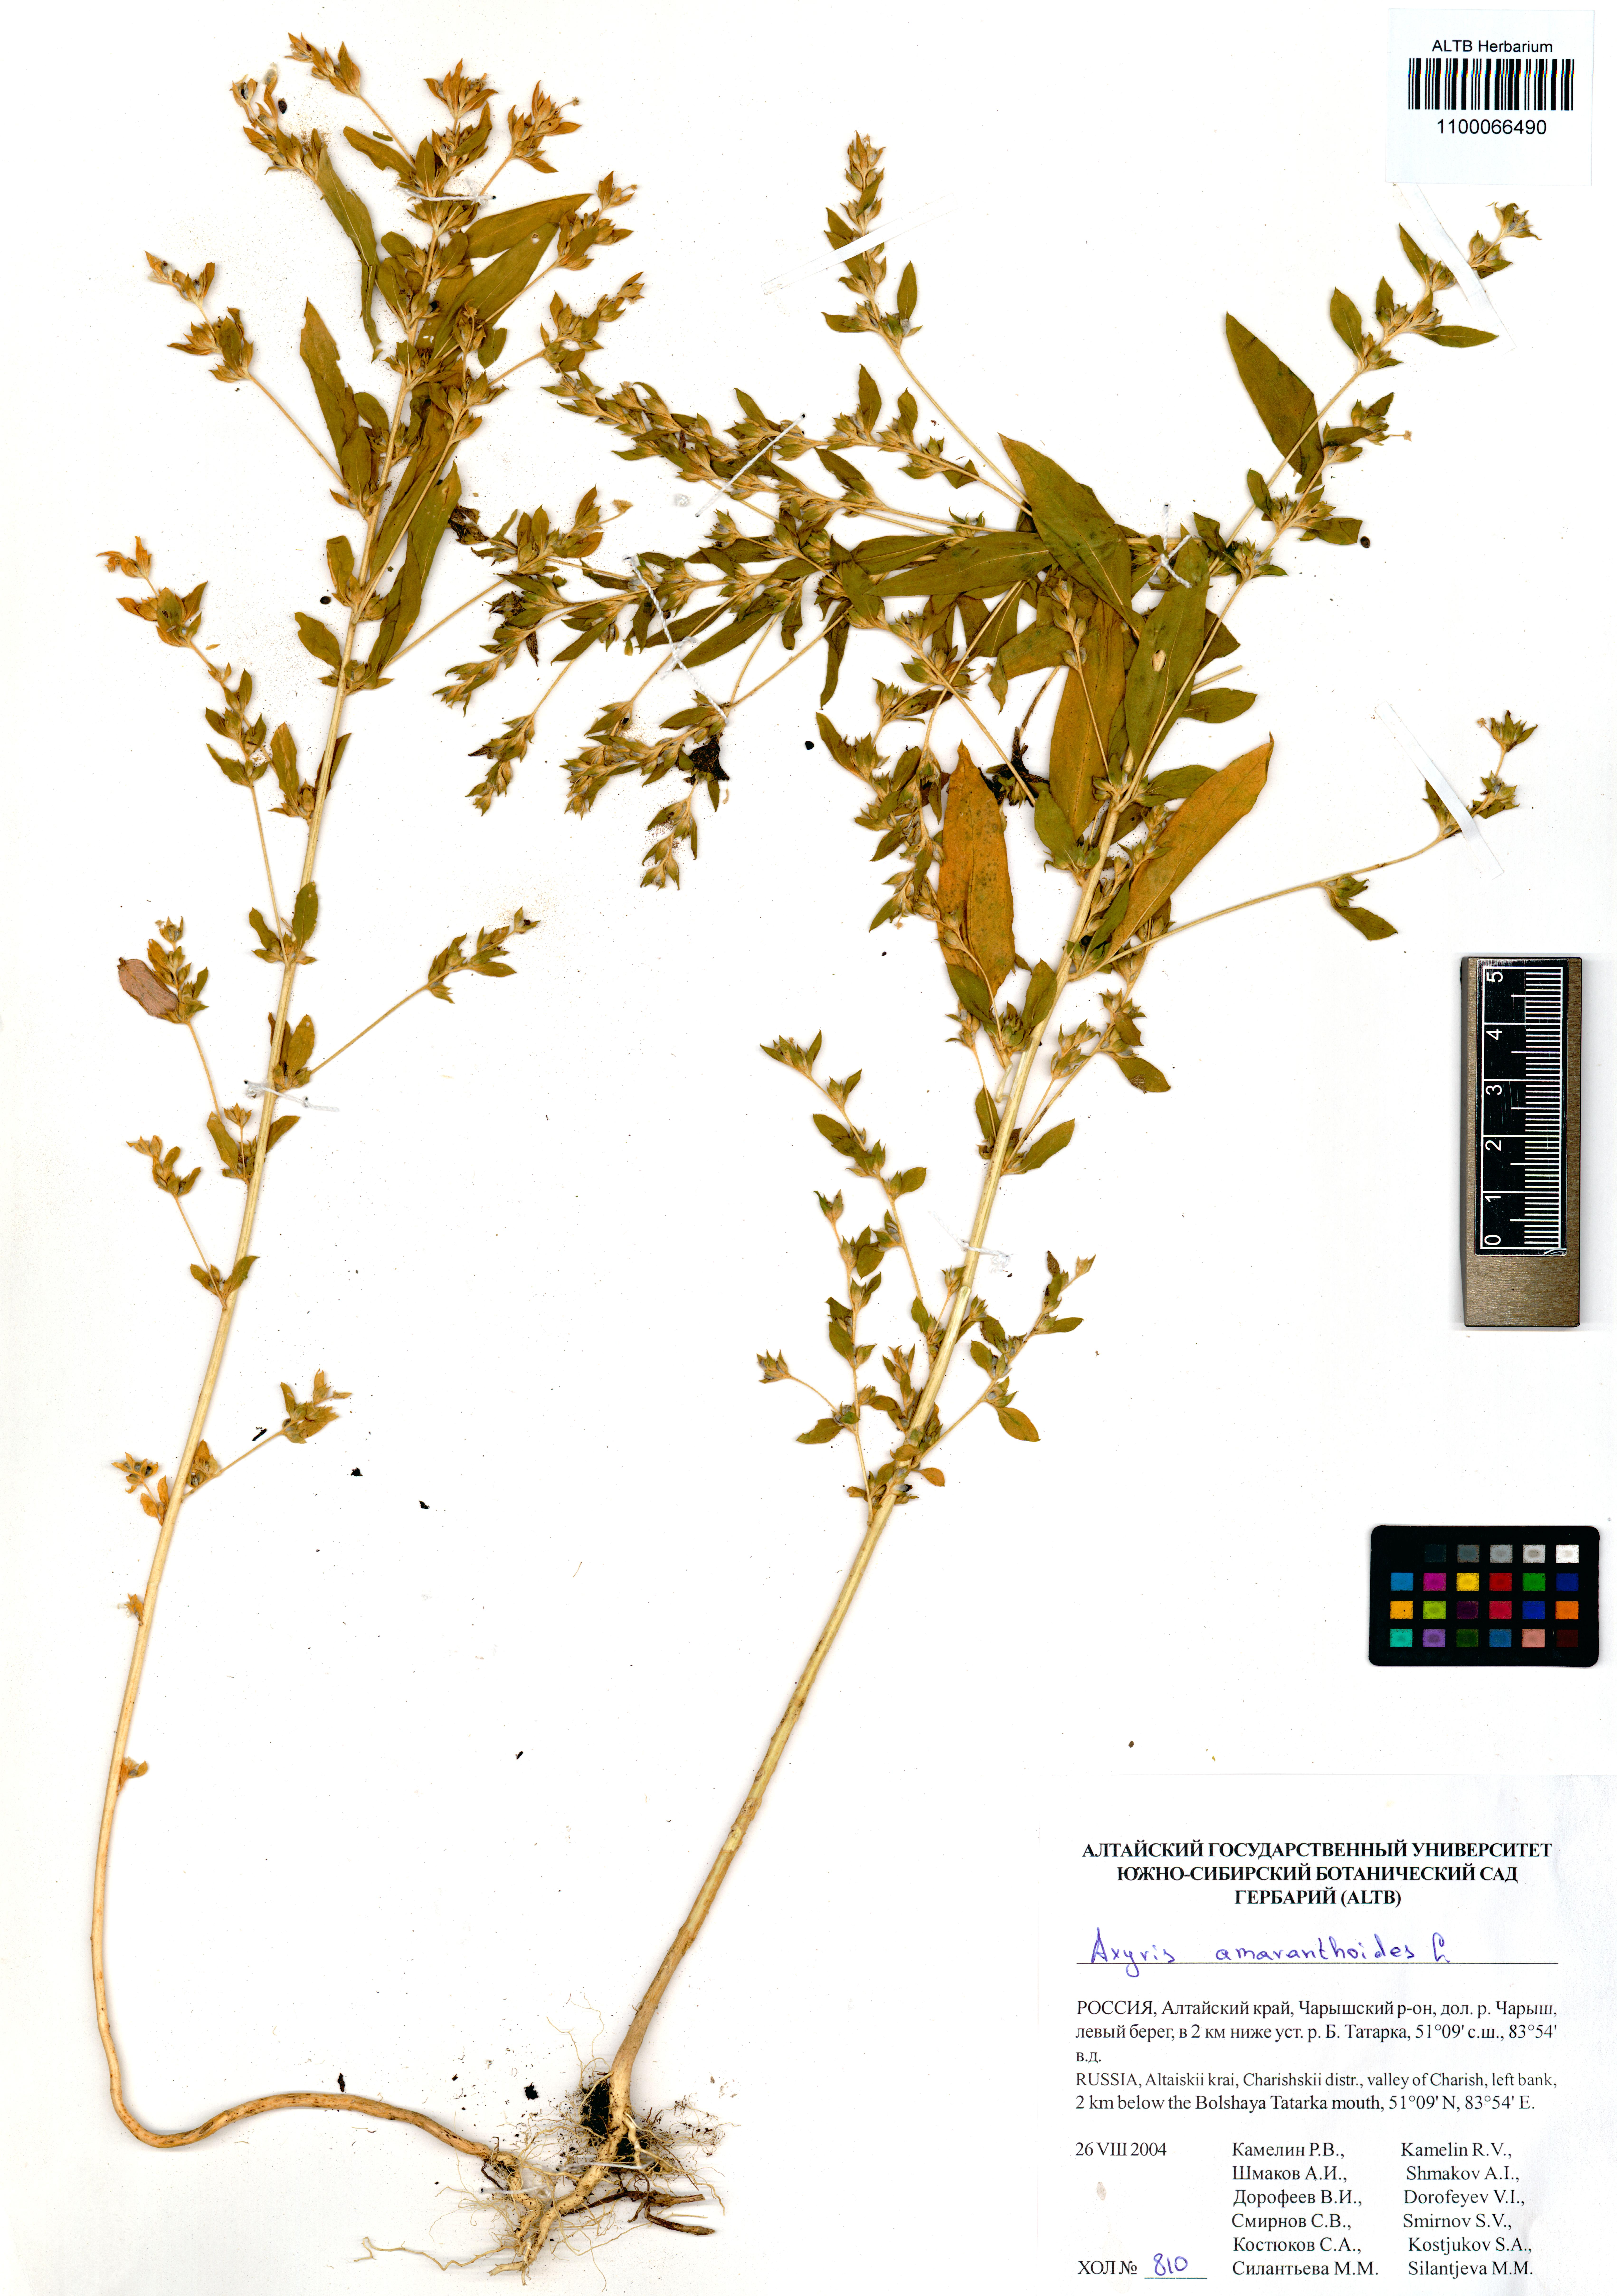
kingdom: Plantae
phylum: Tracheophyta
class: Magnoliopsida
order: Caryophyllales
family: Amaranthaceae
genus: Axyris
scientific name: Axyris amaranthoides
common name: Russian pigweed
